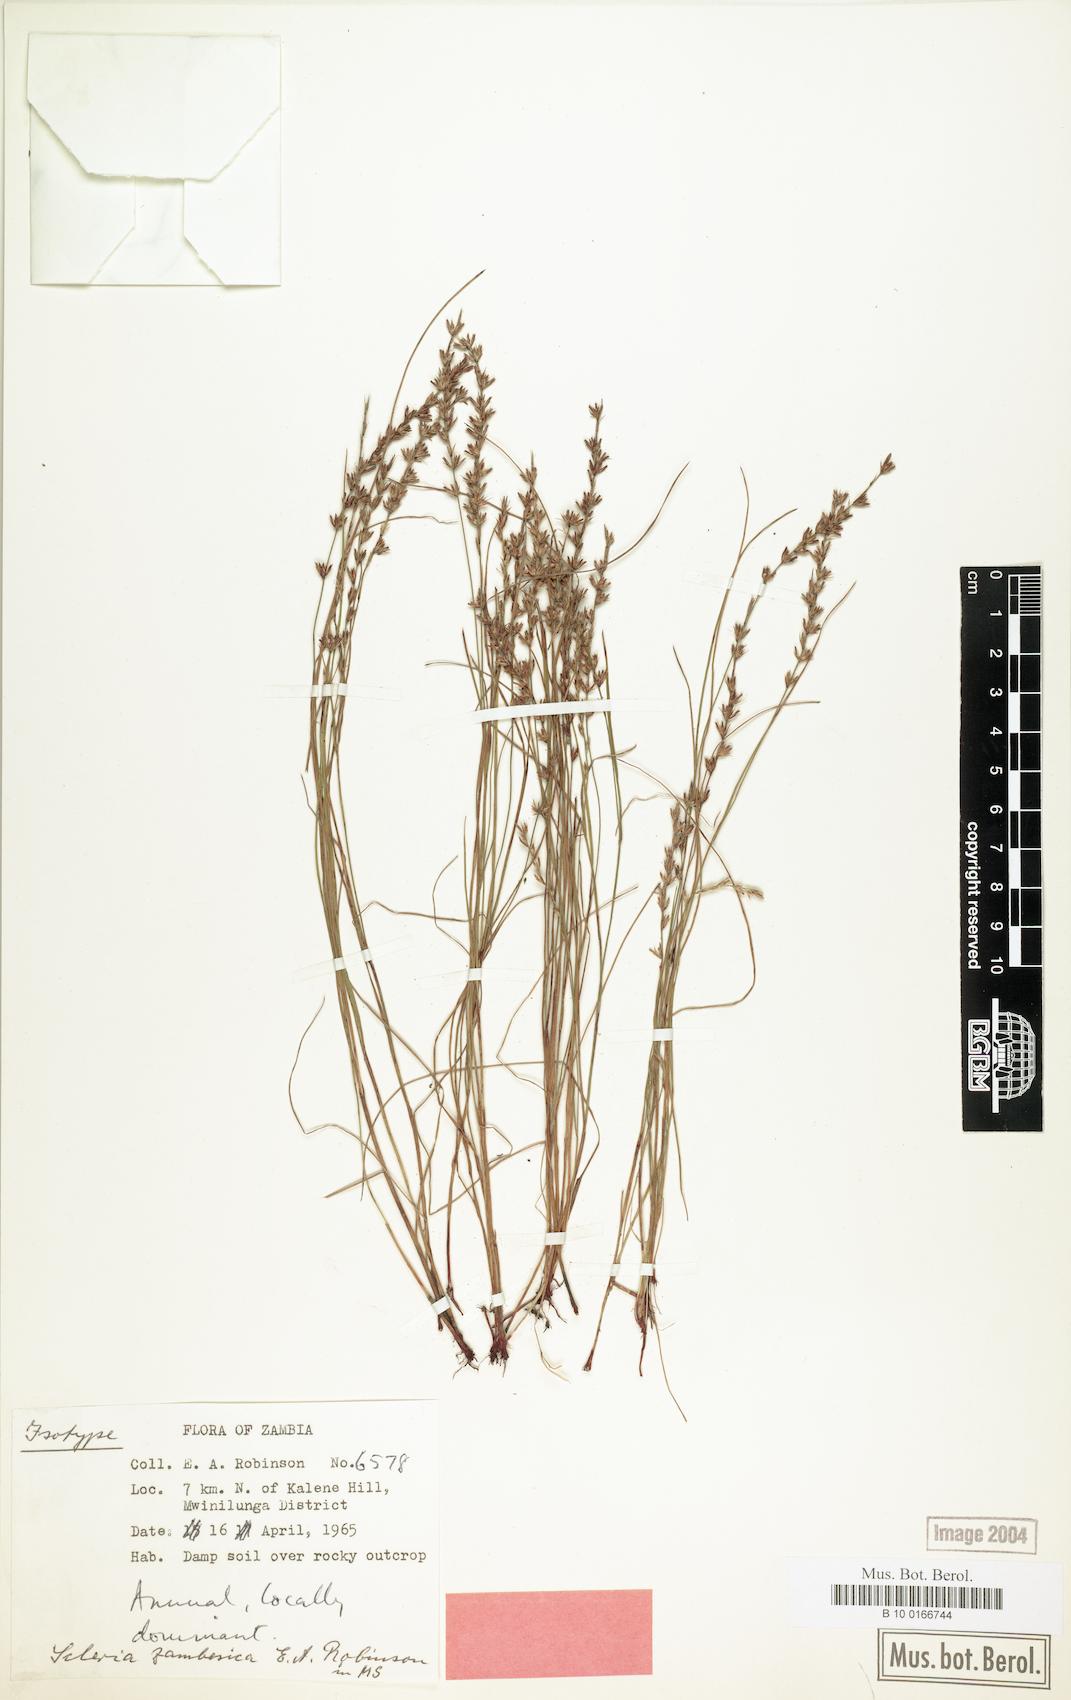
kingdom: Plantae
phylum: Tracheophyta
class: Liliopsida
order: Poales
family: Cyperaceae
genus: Scleria
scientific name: Scleria zambesica
